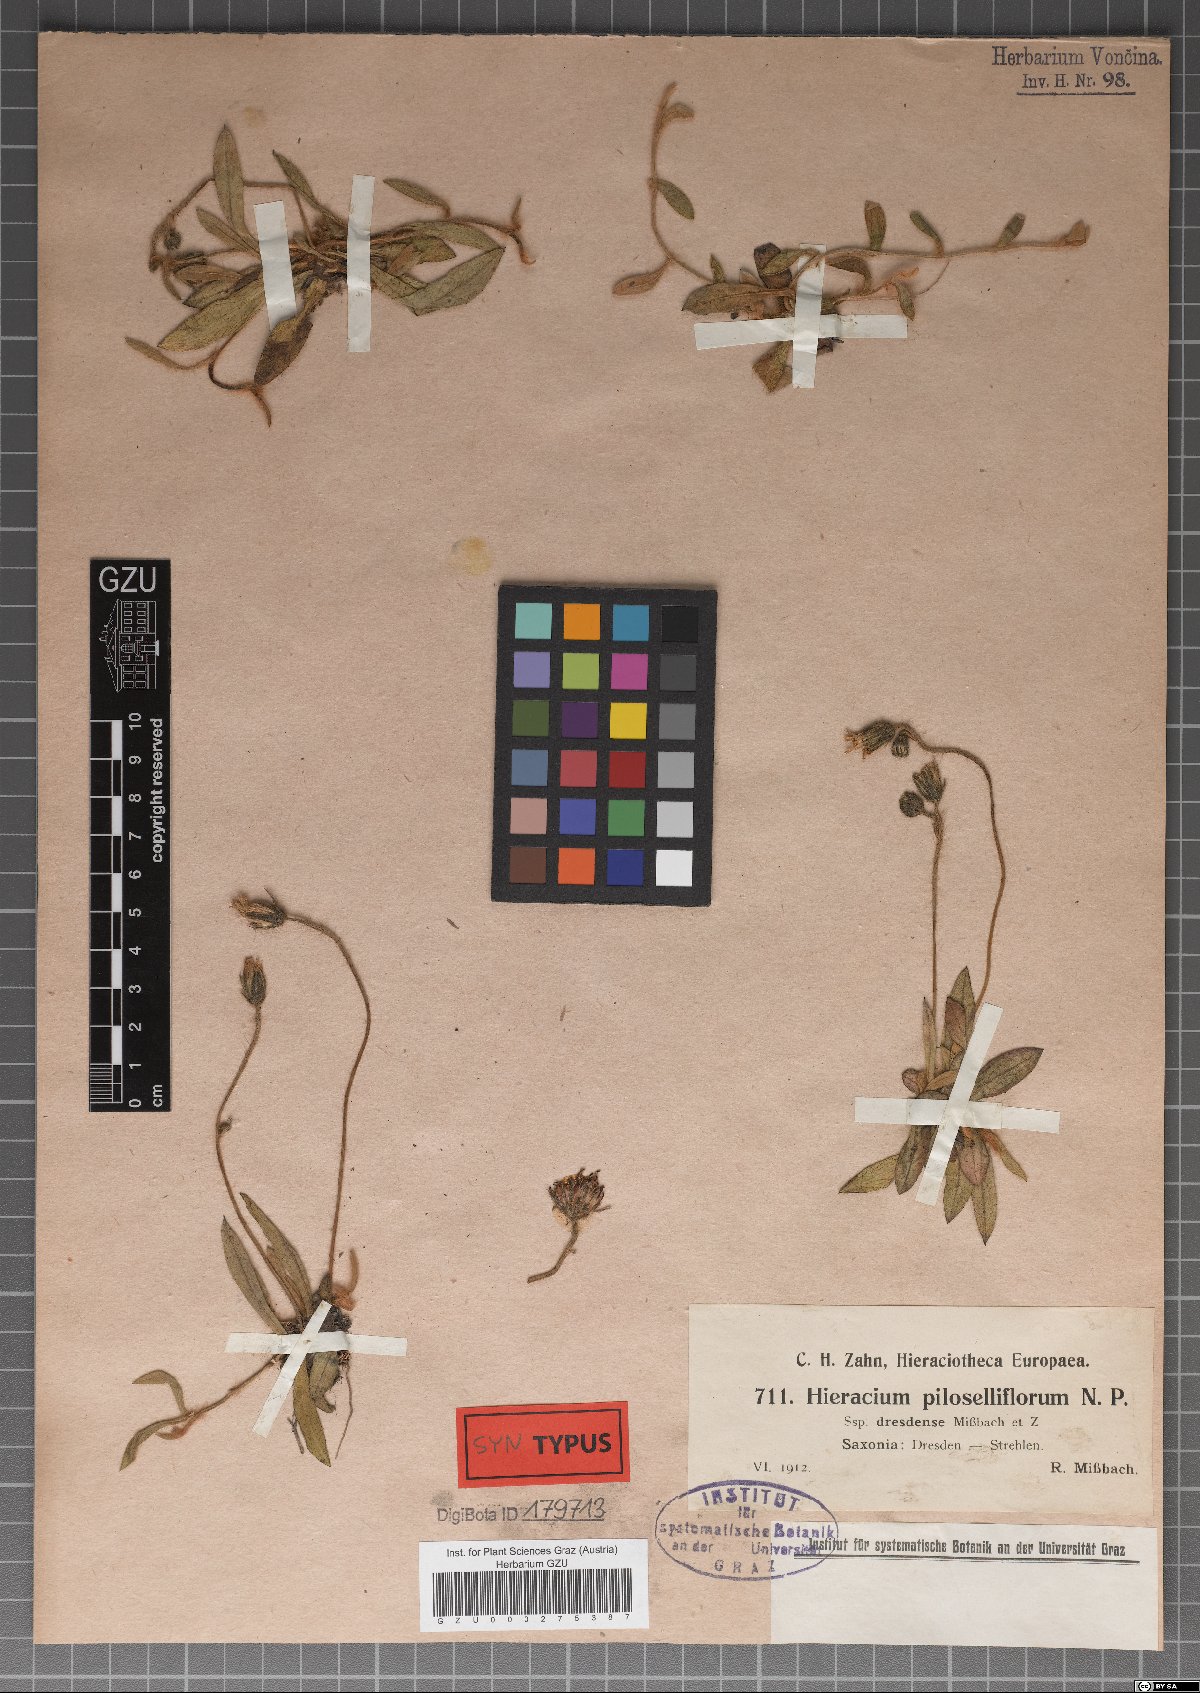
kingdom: Plantae
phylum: Tracheophyta
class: Magnoliopsida
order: Asterales
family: Asteraceae
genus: Pilosella
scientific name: Pilosella macrostolona
